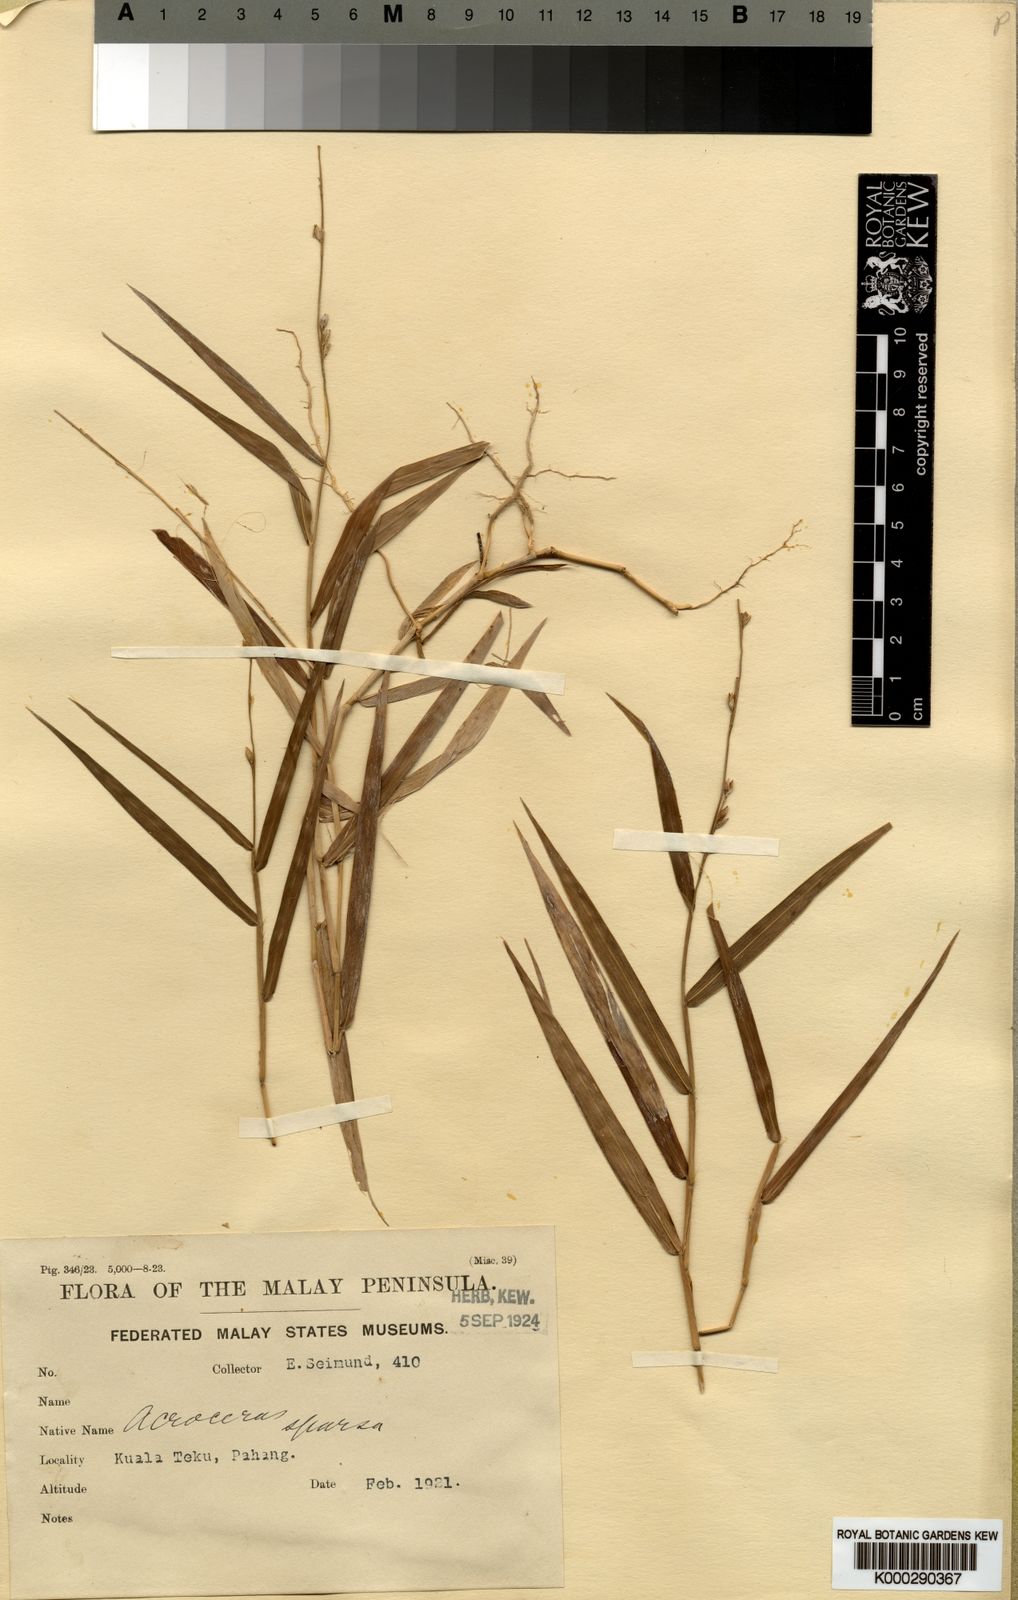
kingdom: Plantae
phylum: Tracheophyta
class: Liliopsida
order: Poales
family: Poaceae
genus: Acroceras
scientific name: Acroceras tonkinense
